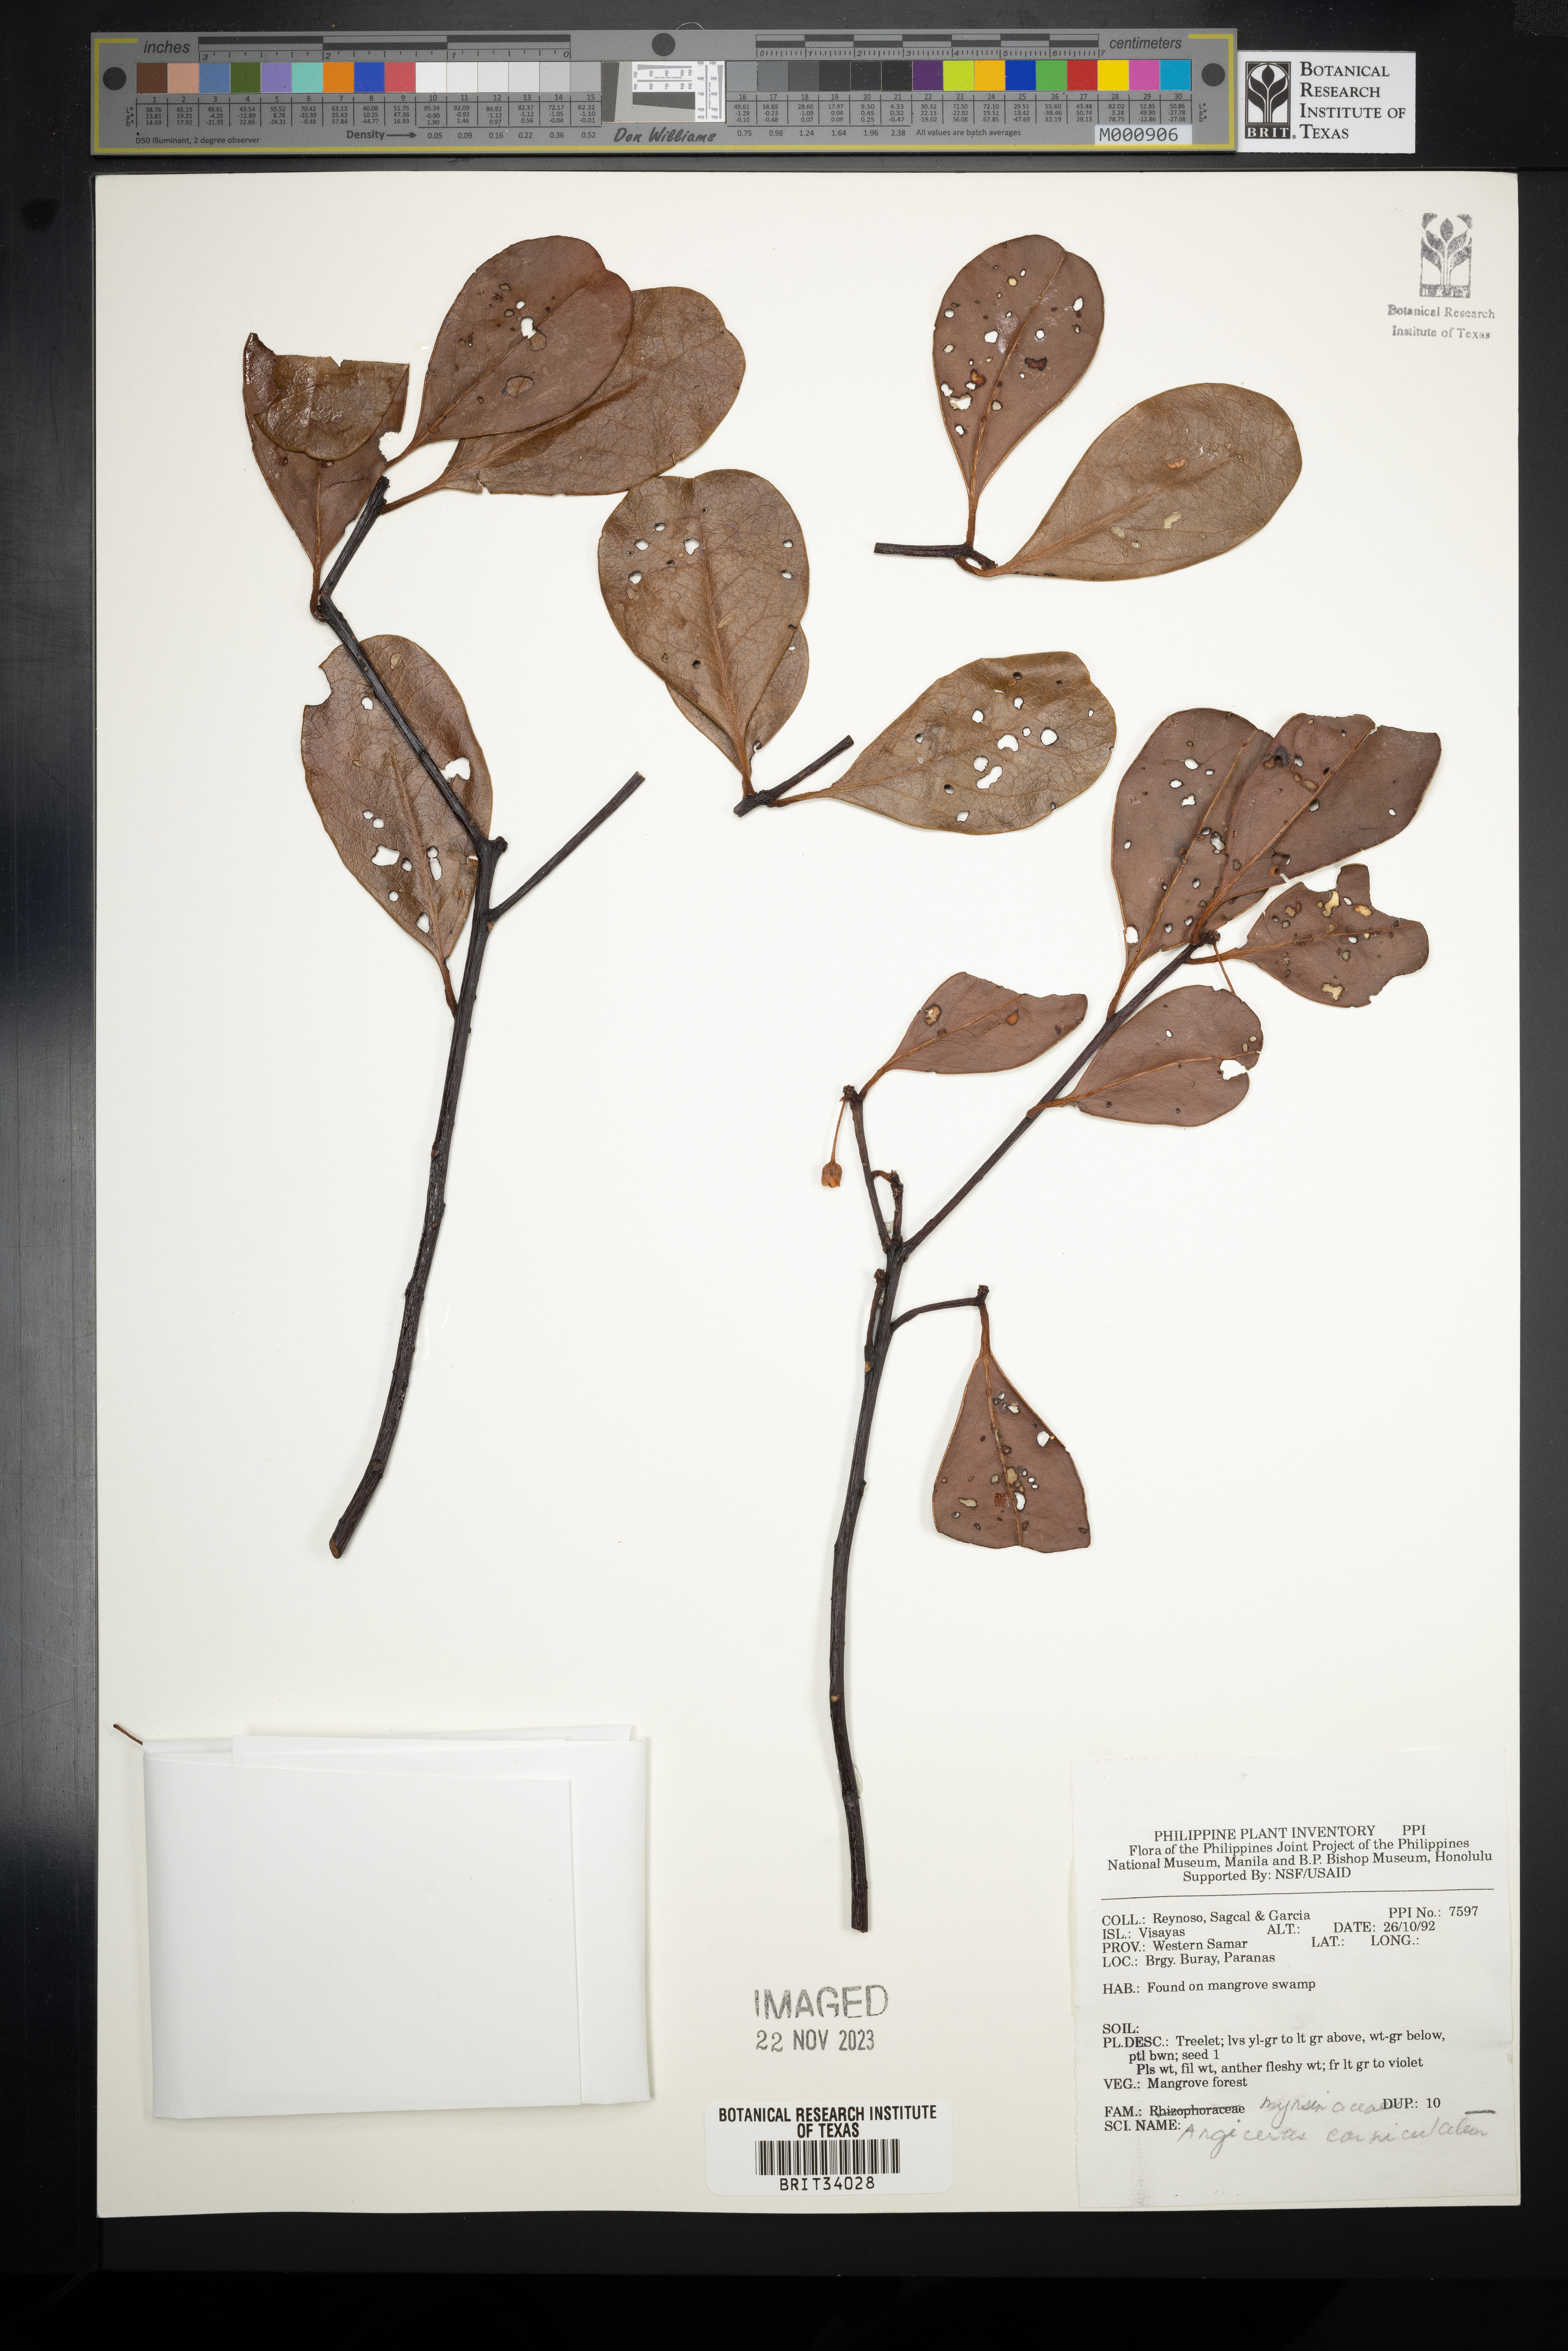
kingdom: Plantae
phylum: Tracheophyta
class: Magnoliopsida
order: Ericales
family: Primulaceae
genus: Aegiceras
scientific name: Aegiceras corniculatum
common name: River mangrove
